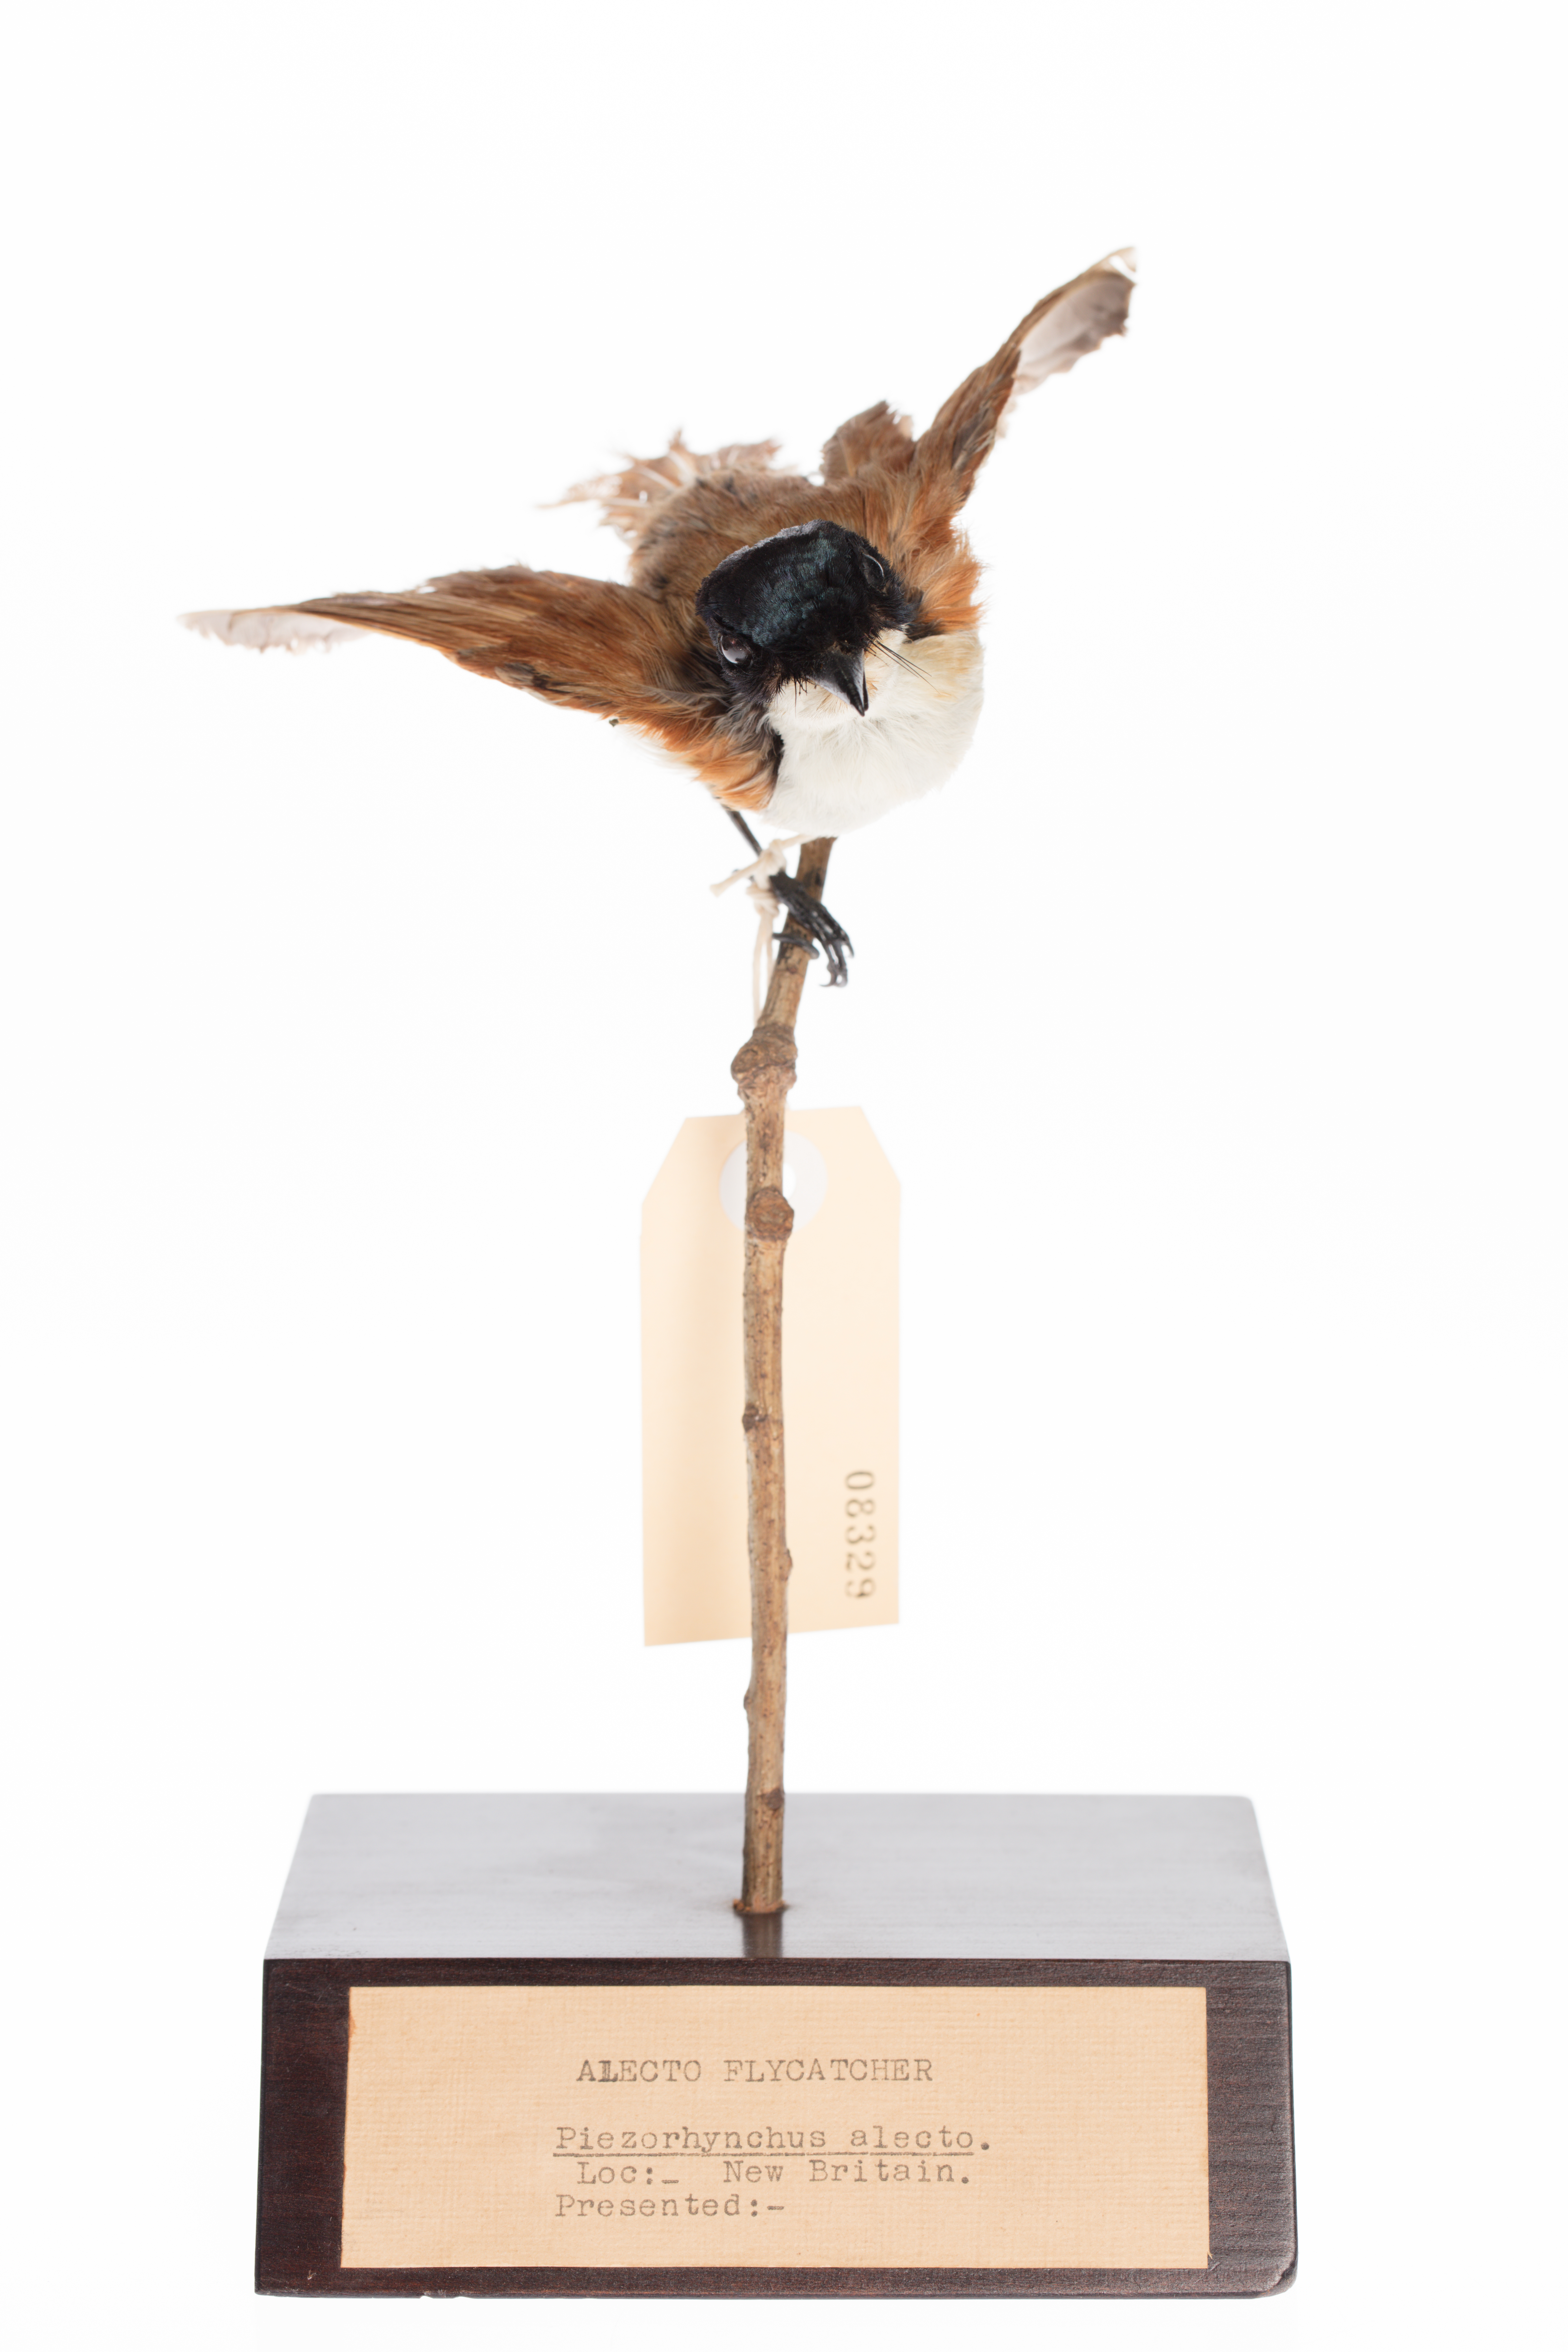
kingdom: Animalia
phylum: Chordata
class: Aves
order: Passeriformes
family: Monarchidae
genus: Myiagra
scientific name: Myiagra alecto
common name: Shining flycatcher
